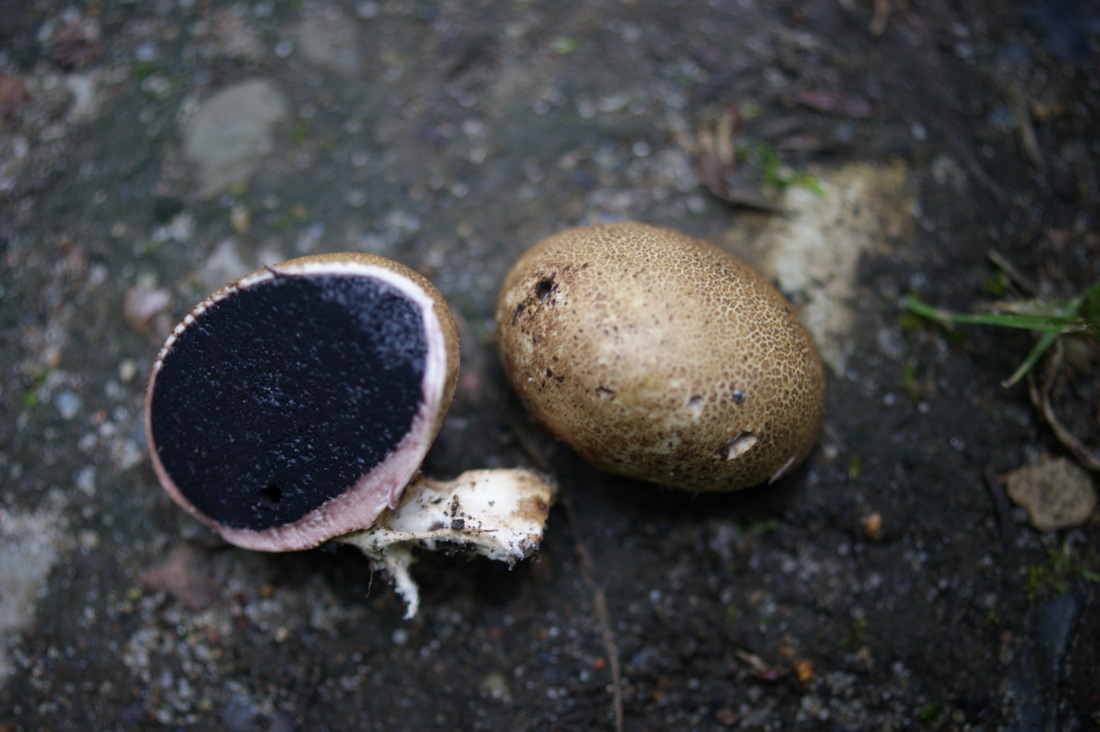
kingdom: Fungi
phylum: Basidiomycota
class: Agaricomycetes
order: Boletales
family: Sclerodermataceae
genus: Scleroderma
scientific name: Scleroderma areolatum
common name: plettet bruskbold
